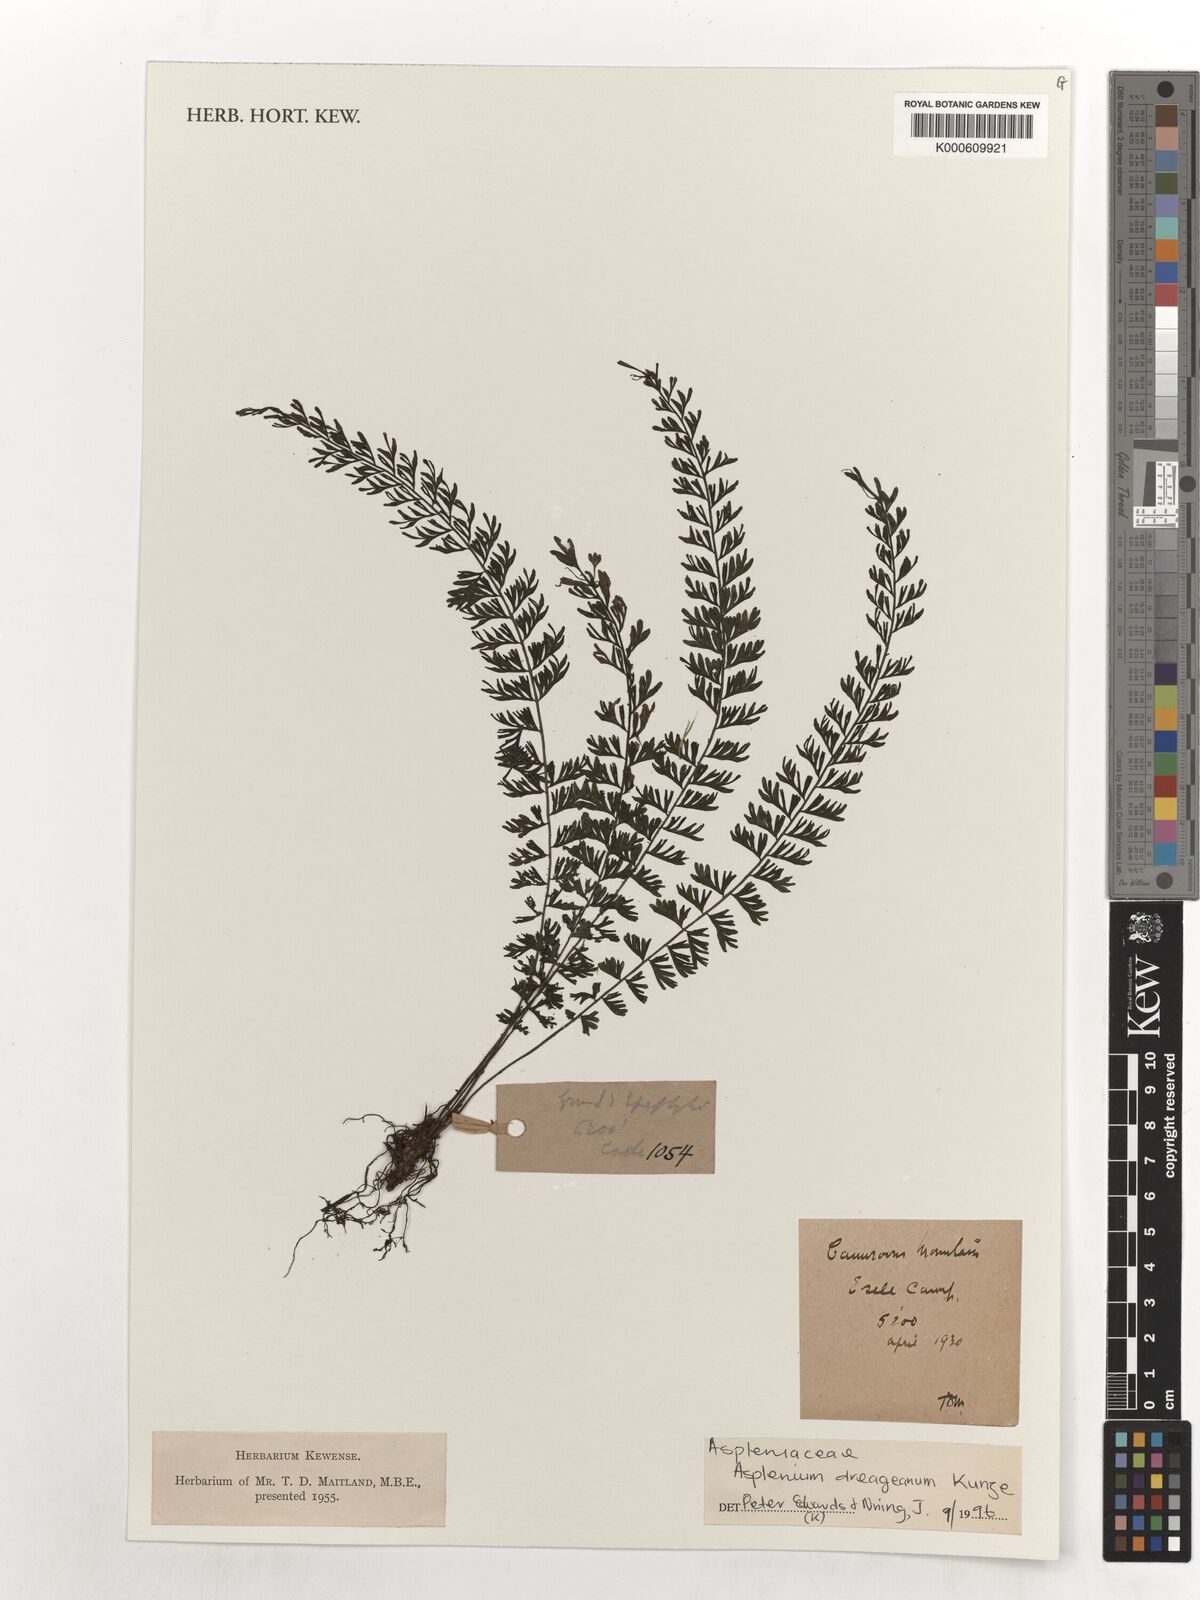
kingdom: Plantae
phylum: Tracheophyta
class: Polypodiopsida
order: Polypodiales
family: Aspleniaceae
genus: Asplenium
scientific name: Asplenium dregeanum
